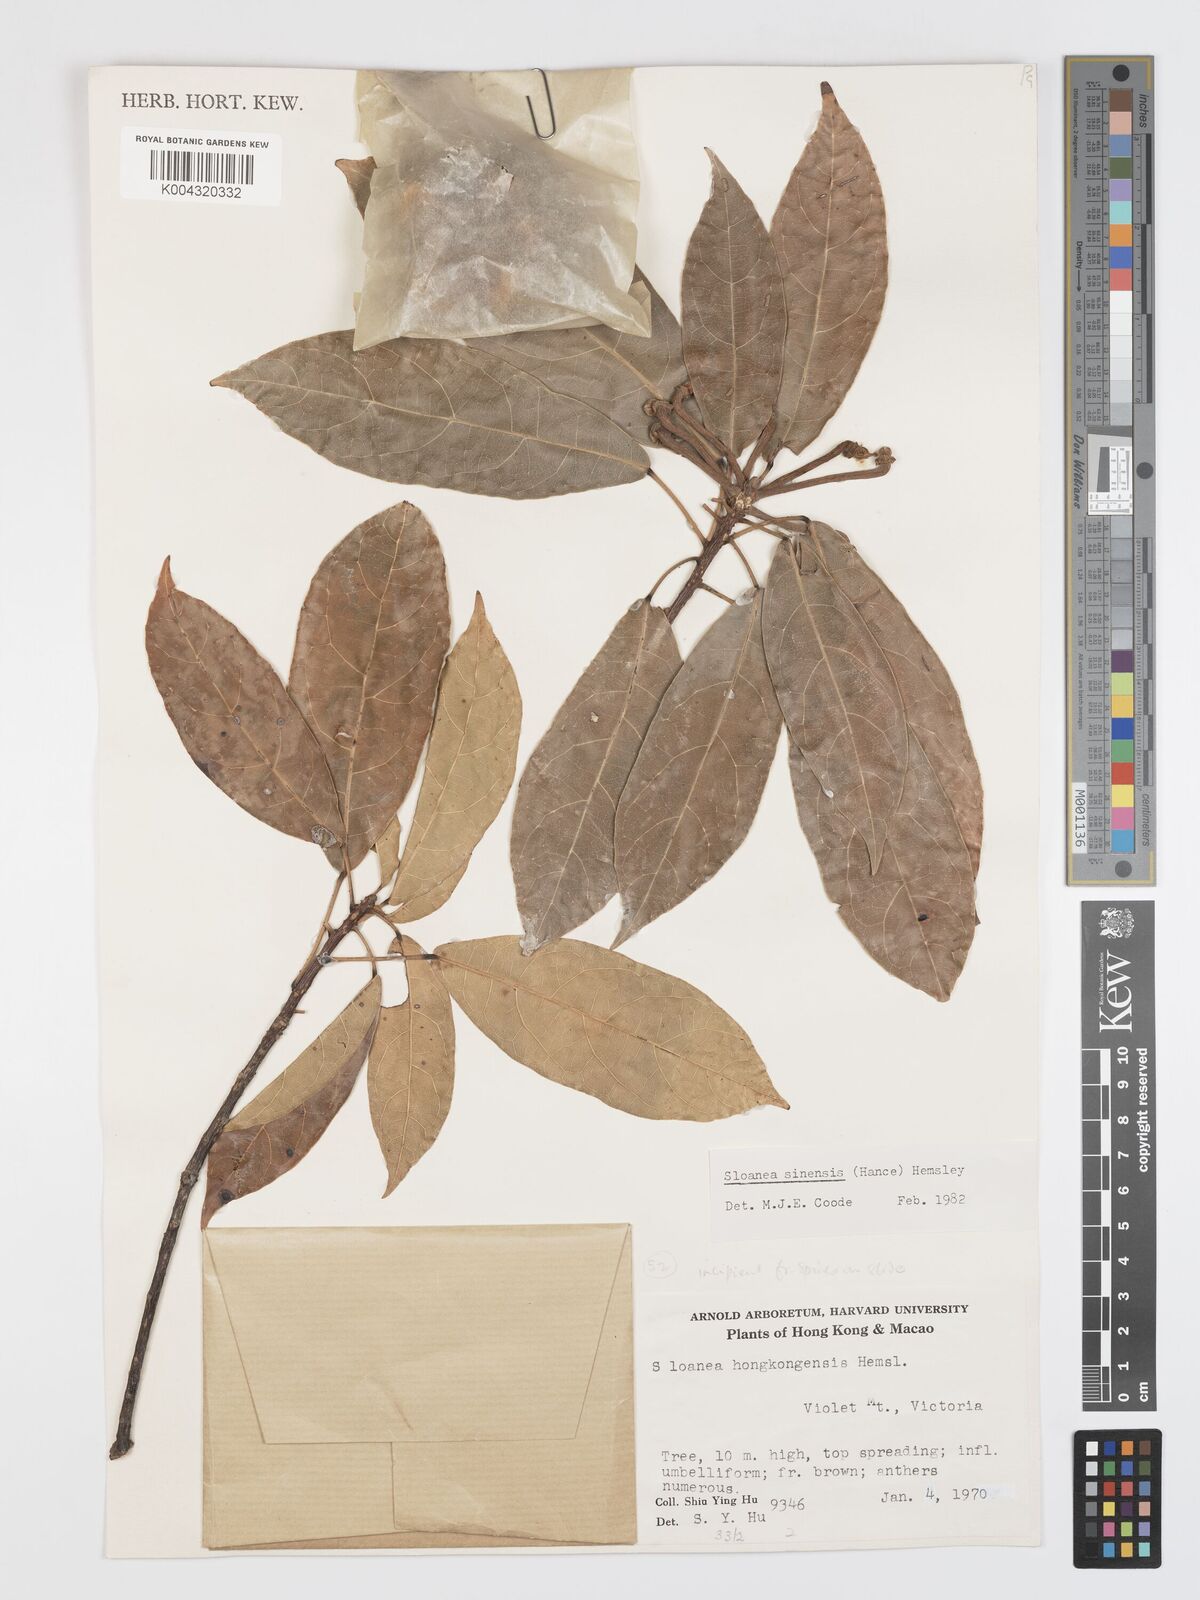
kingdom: Plantae
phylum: Tracheophyta
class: Magnoliopsida
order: Oxalidales
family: Elaeocarpaceae
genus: Sloanea
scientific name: Sloanea sinensis
